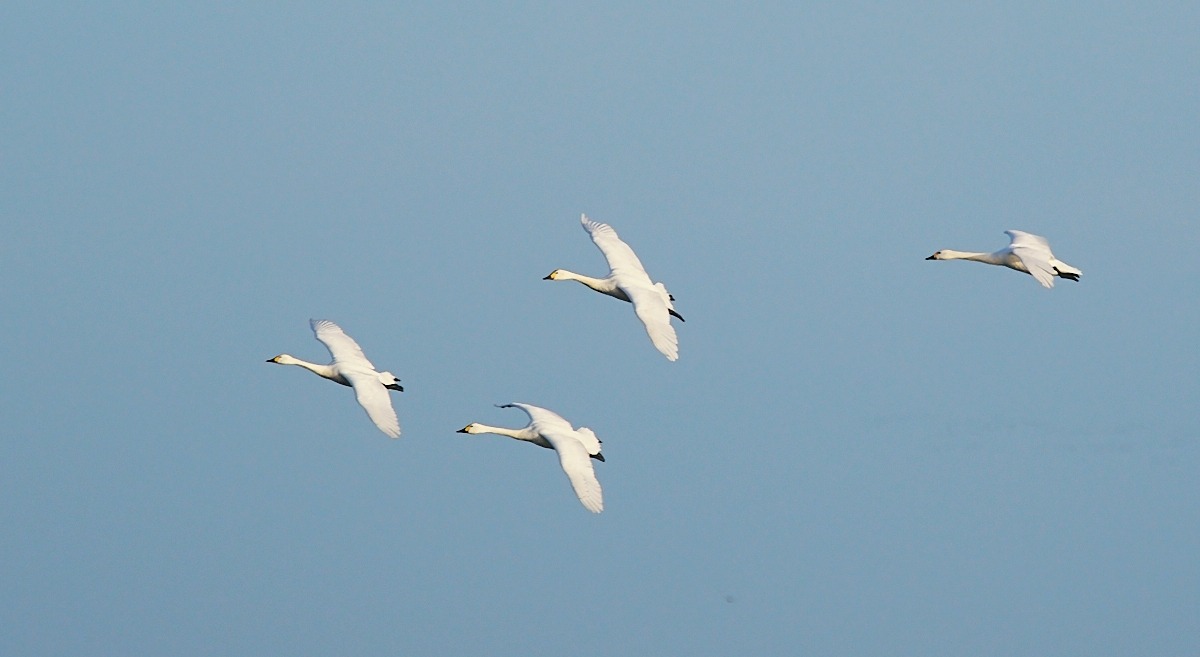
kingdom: Animalia
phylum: Chordata
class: Aves
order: Anseriformes
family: Anatidae
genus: Cygnus
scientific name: Cygnus columbianus
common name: Pibesvane
